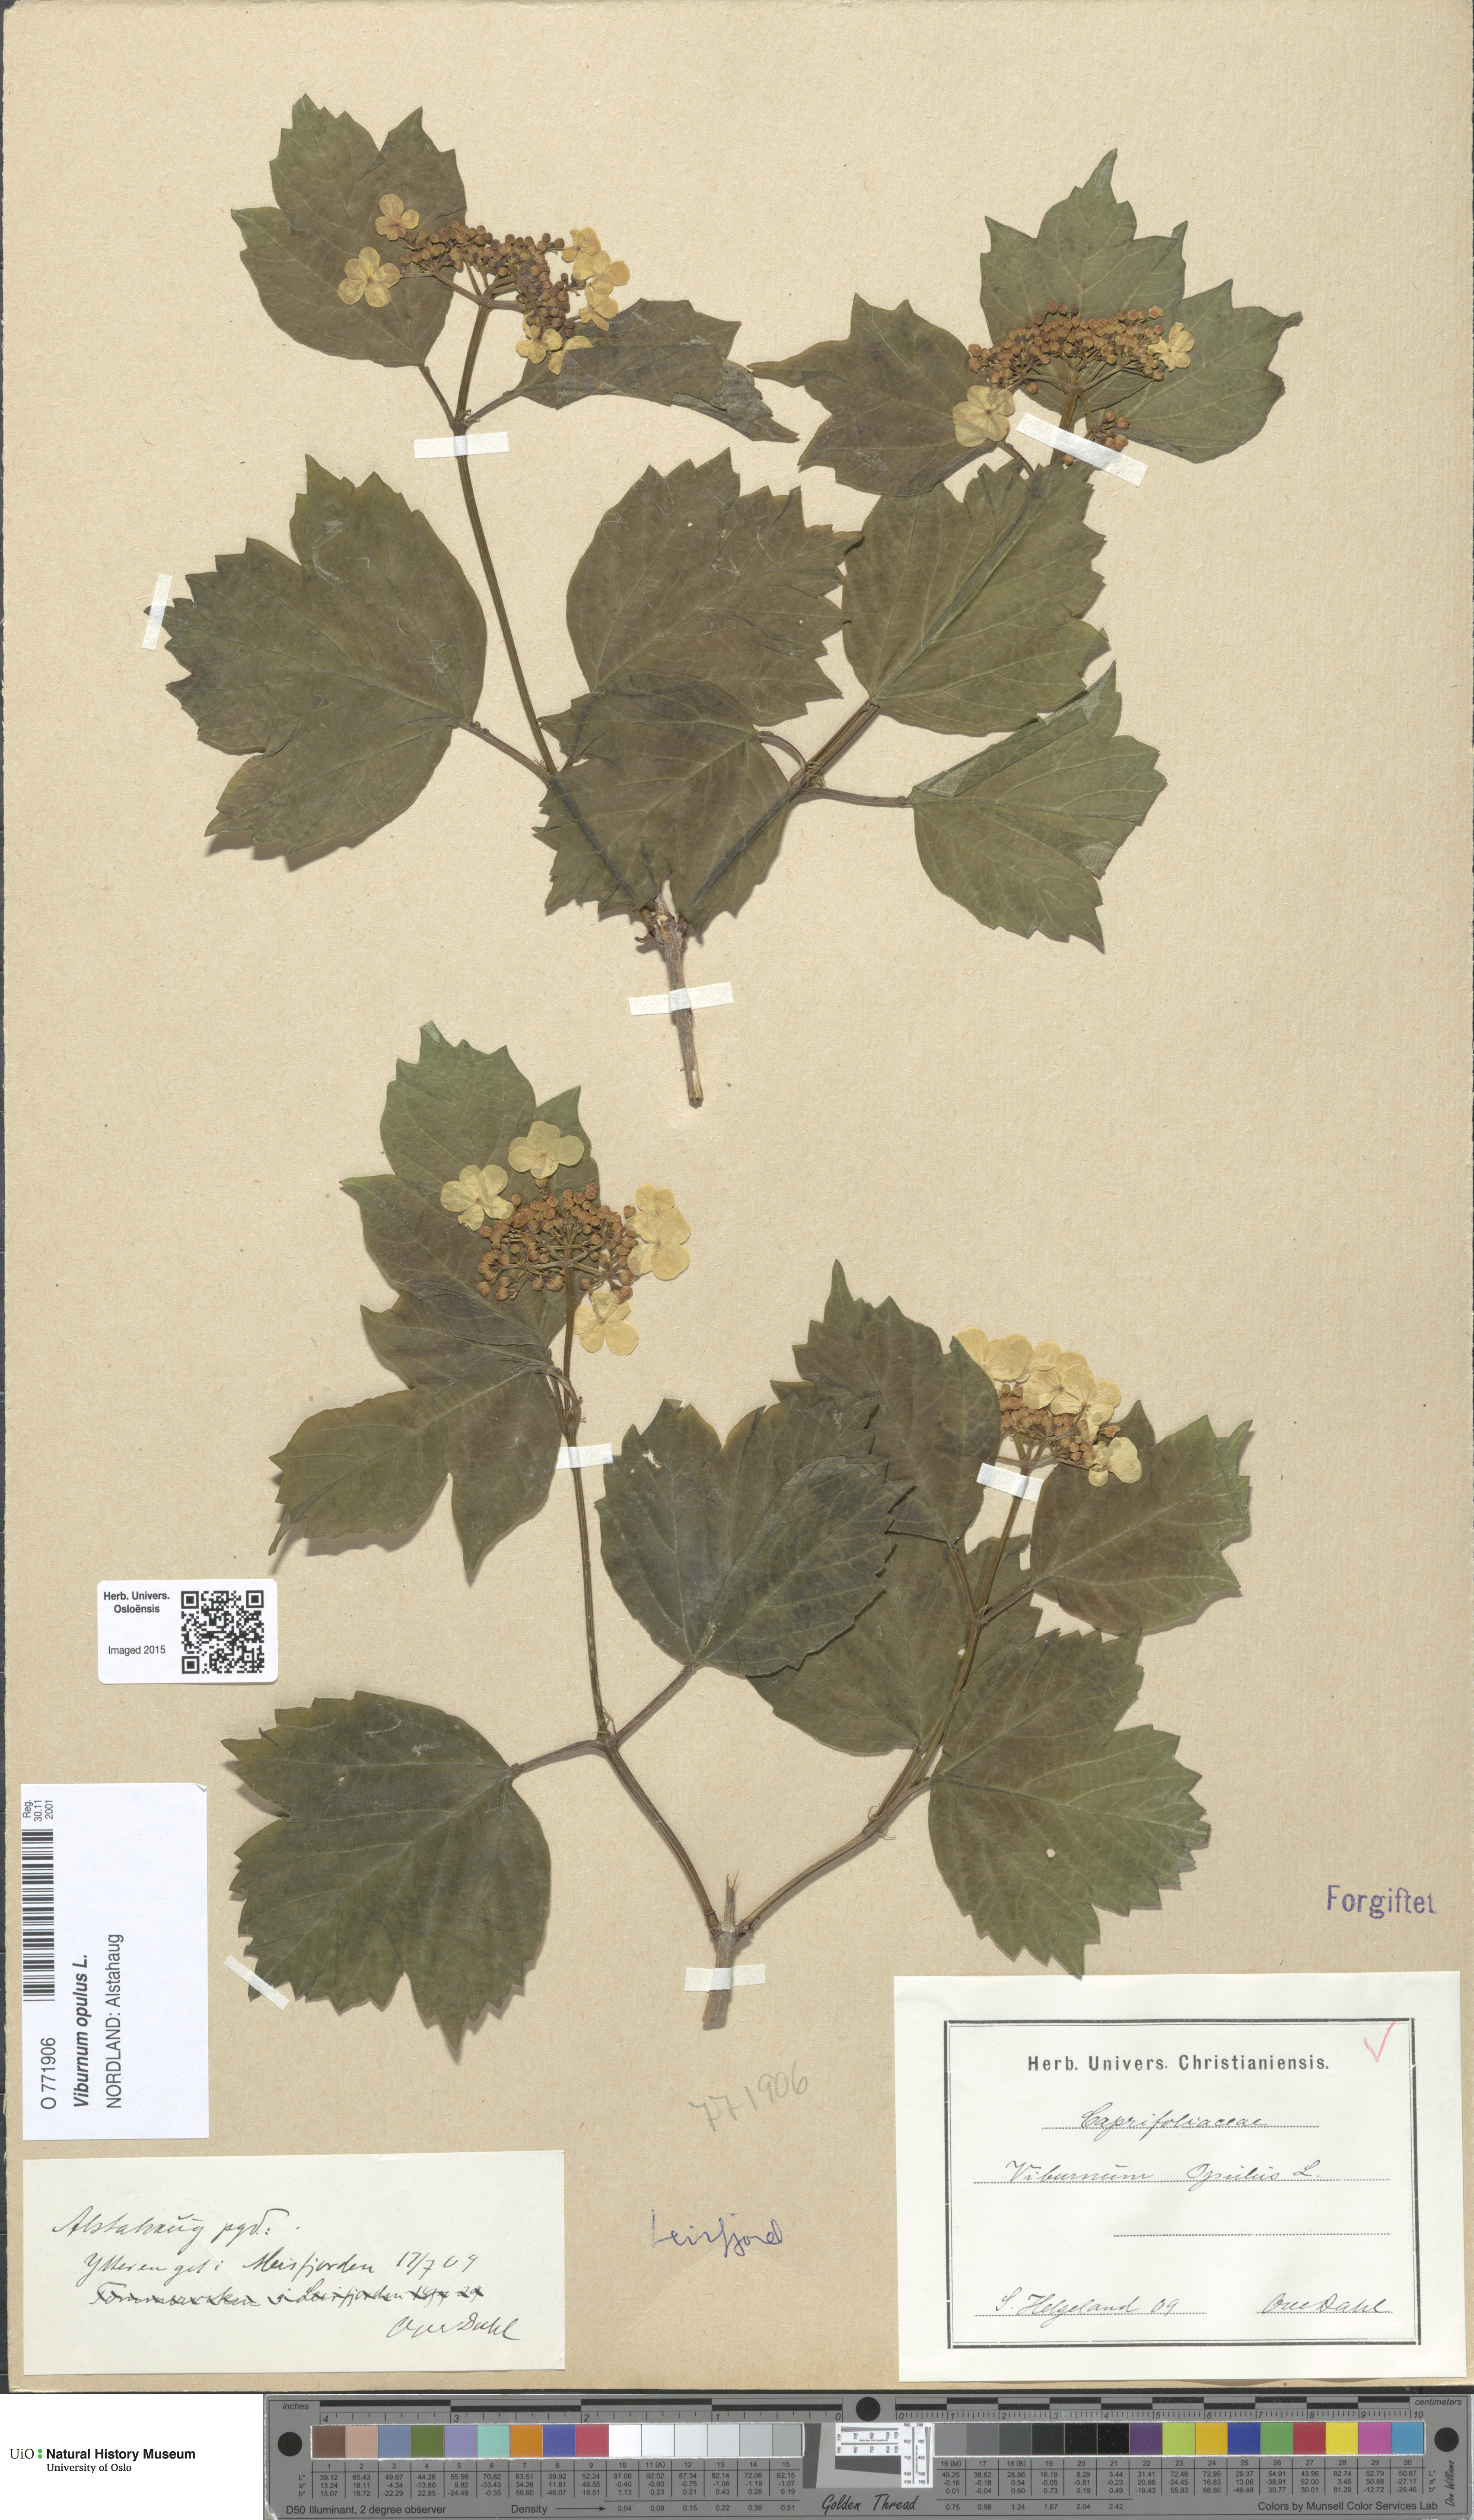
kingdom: Plantae
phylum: Tracheophyta
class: Magnoliopsida
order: Dipsacales
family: Viburnaceae
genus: Viburnum
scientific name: Viburnum opulus
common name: Guelder-rose
